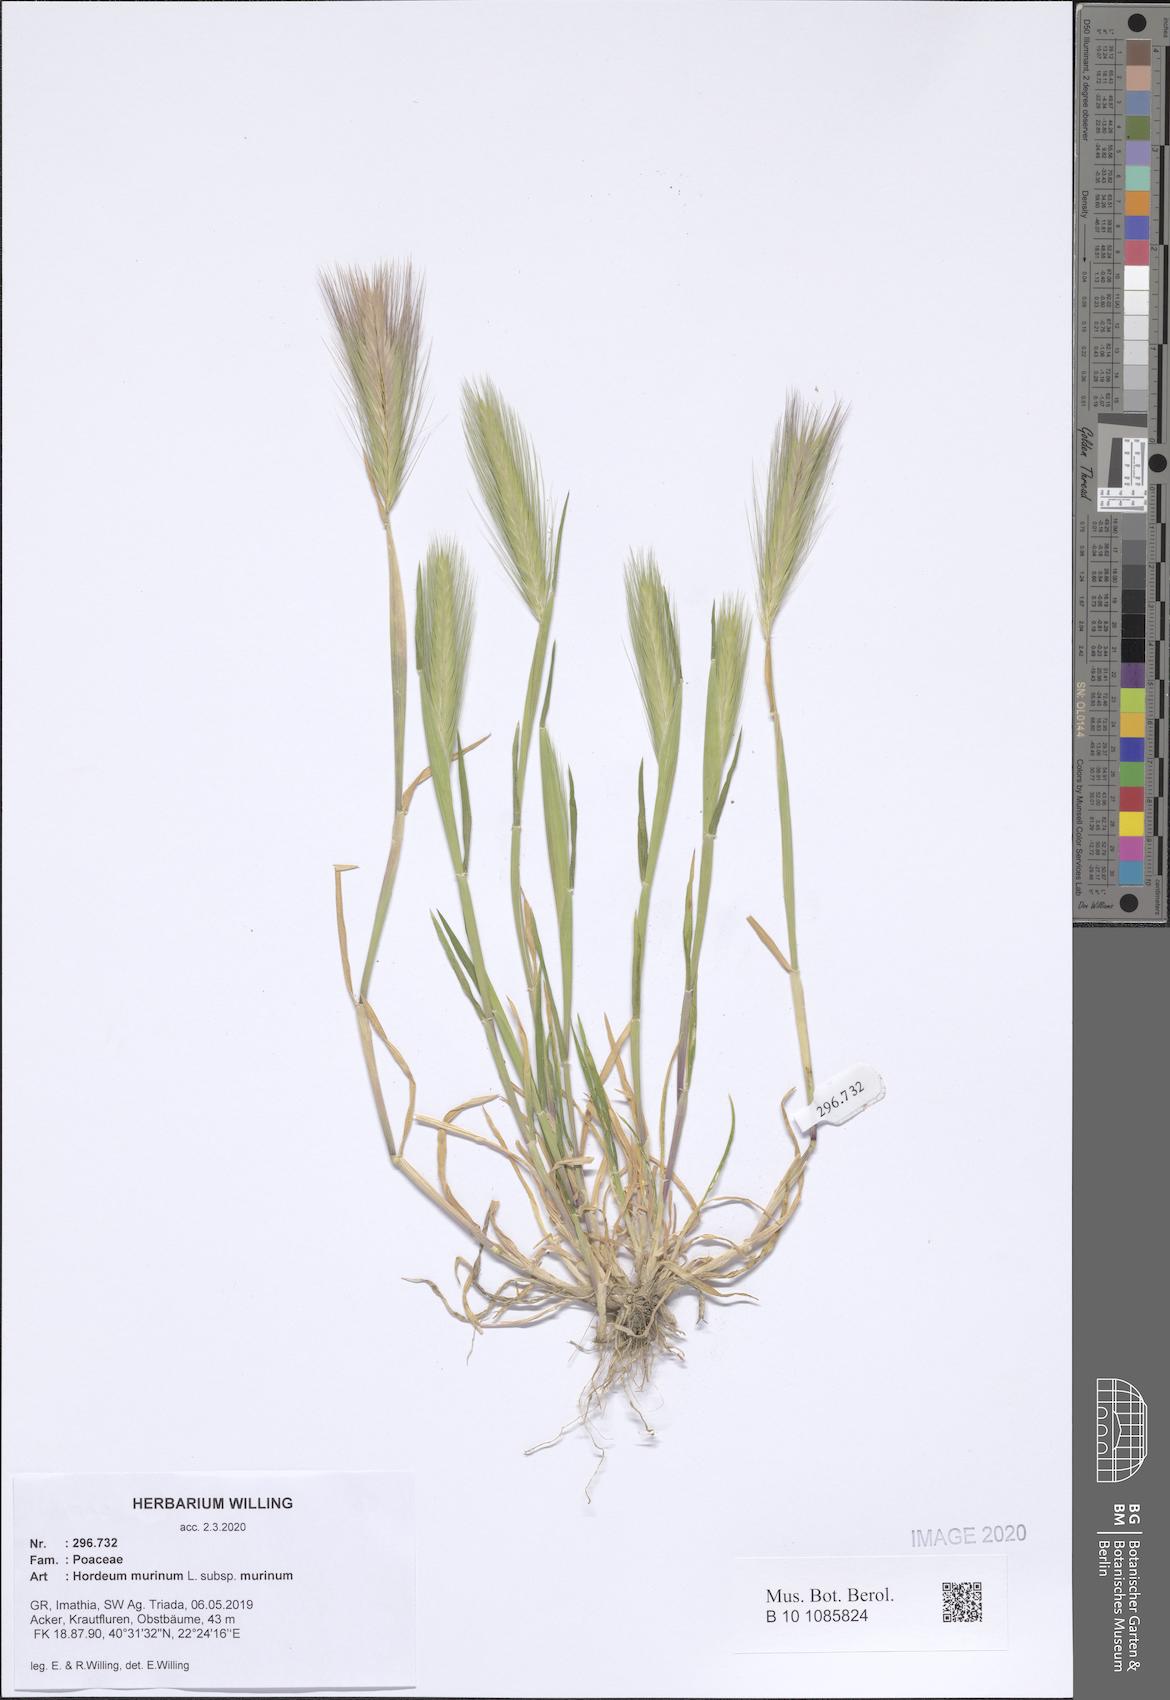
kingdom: Plantae
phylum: Tracheophyta
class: Liliopsida
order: Poales
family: Poaceae
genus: Hordeum
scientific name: Hordeum murinum
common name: Wall barley
